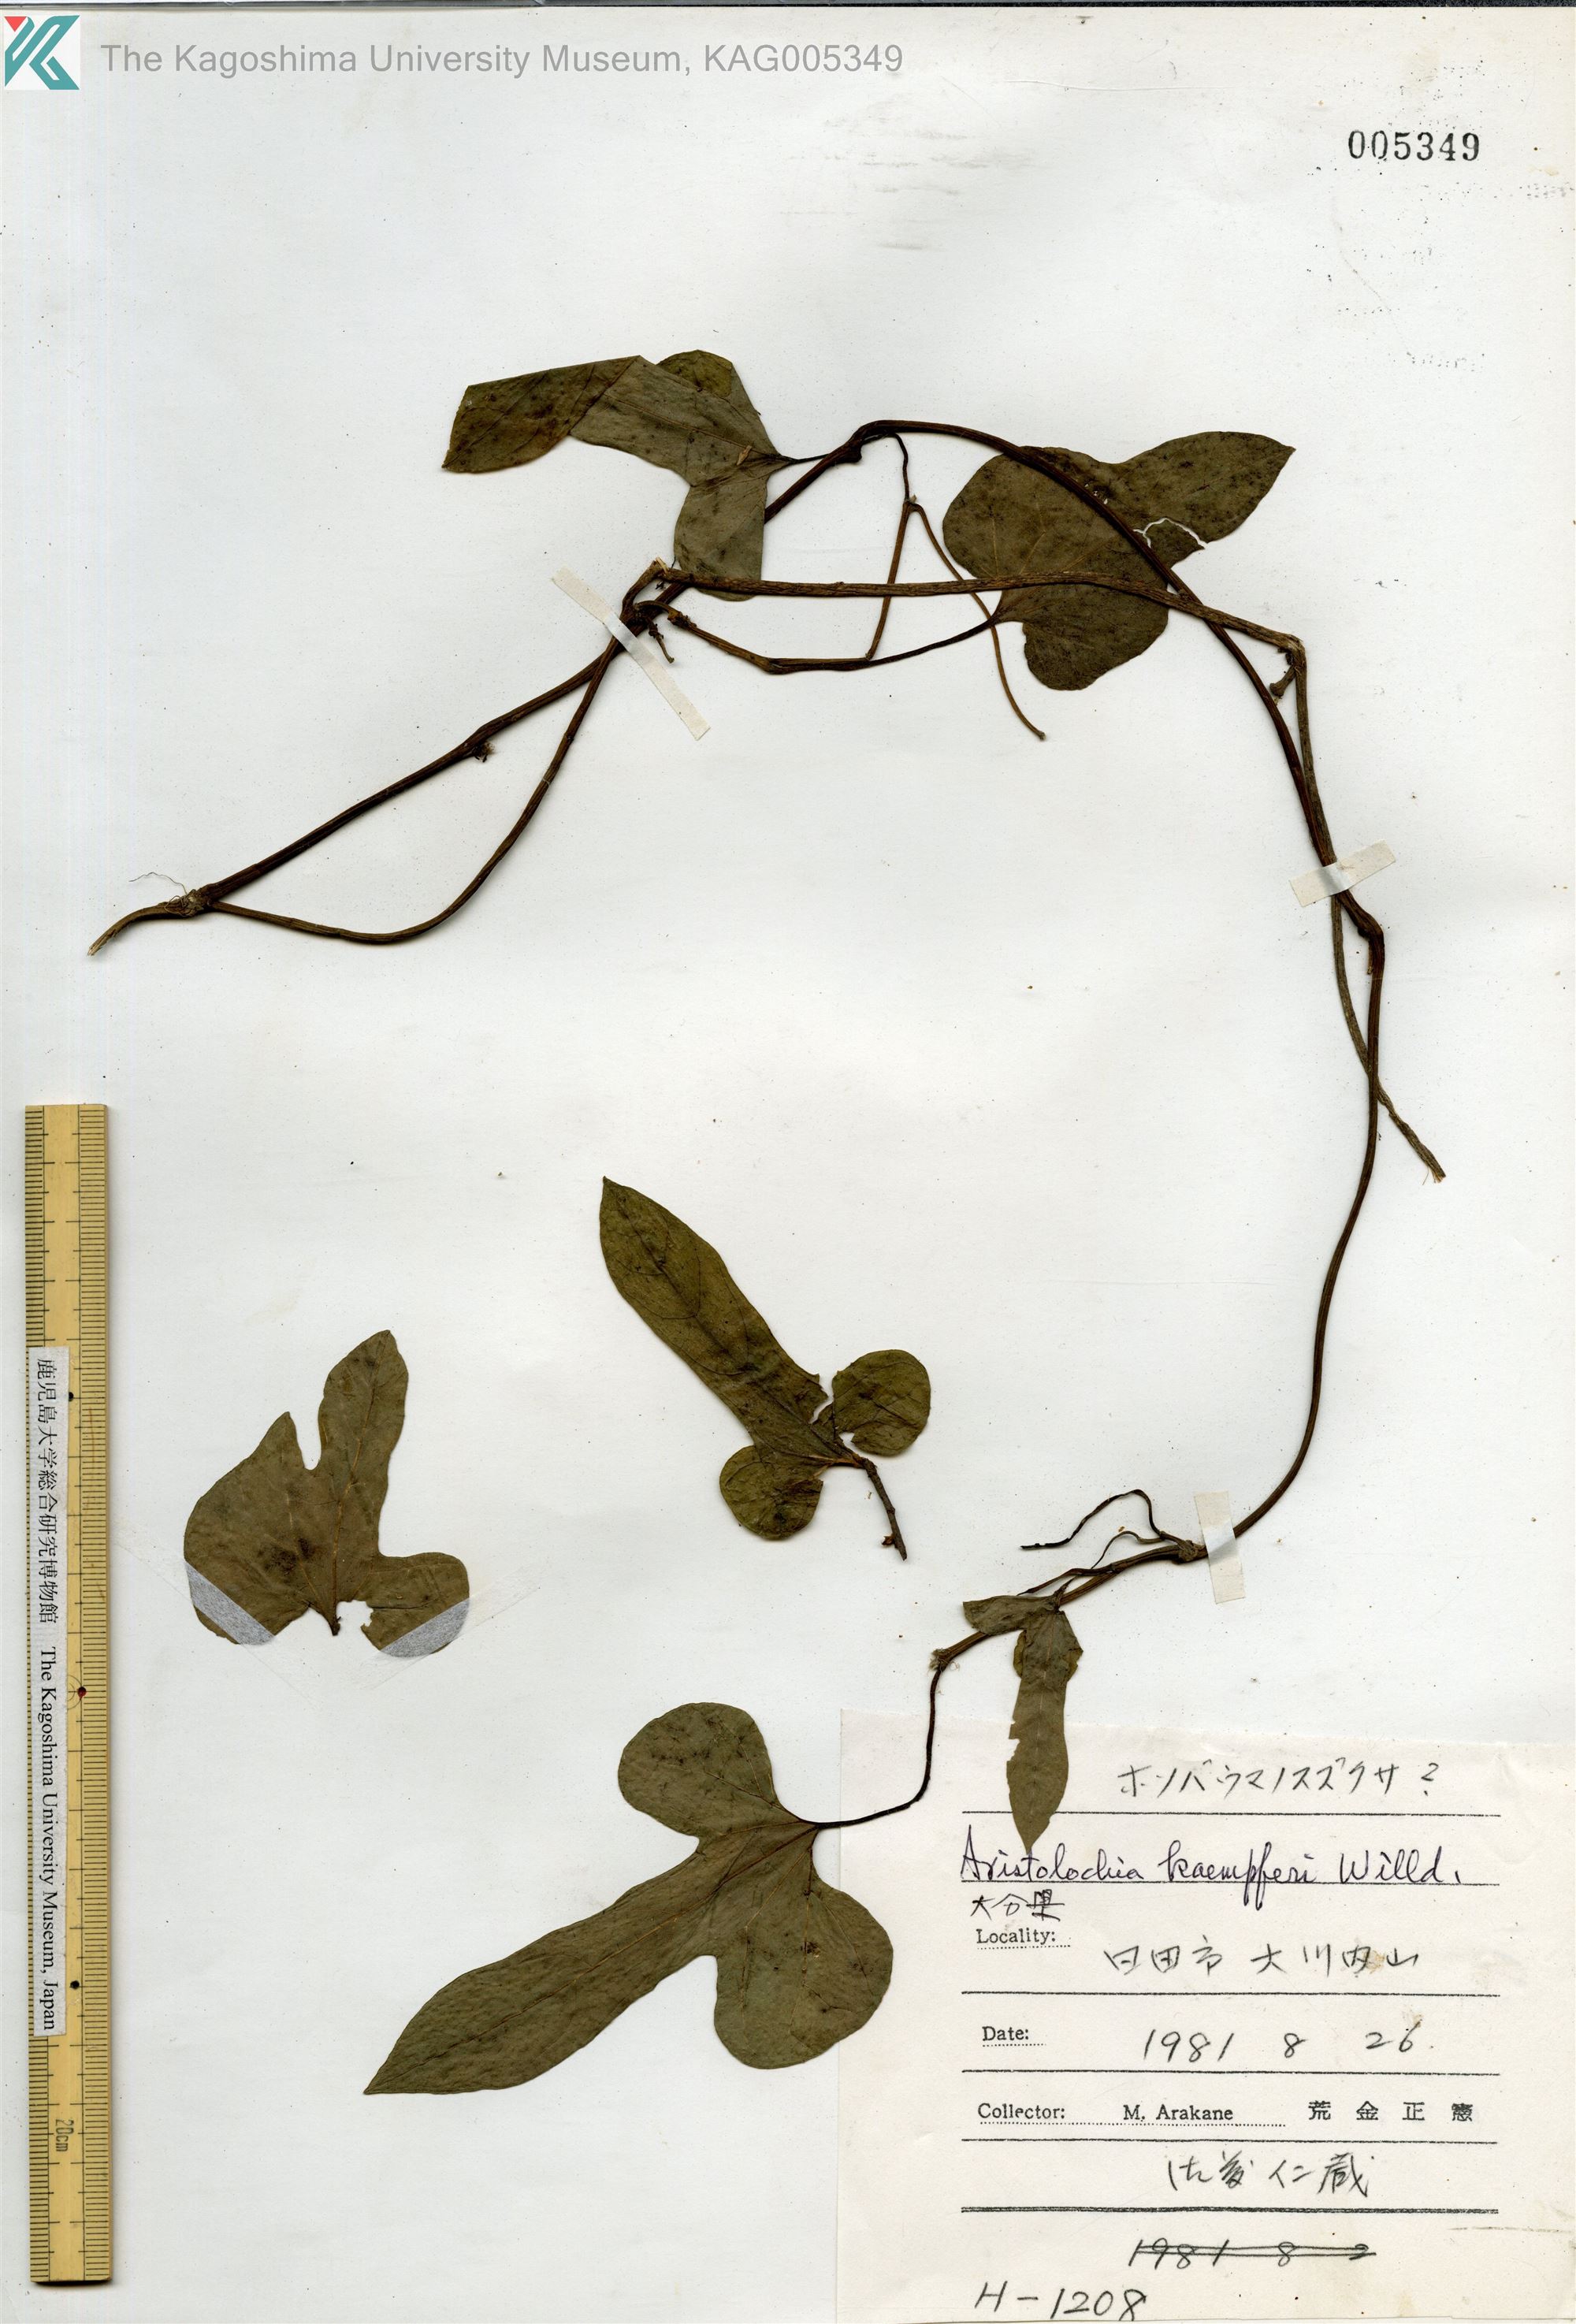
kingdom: Plantae
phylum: Tracheophyta
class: Magnoliopsida
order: Piperales
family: Aristolochiaceae
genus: Isotrema
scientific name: Isotrema kaempferi
